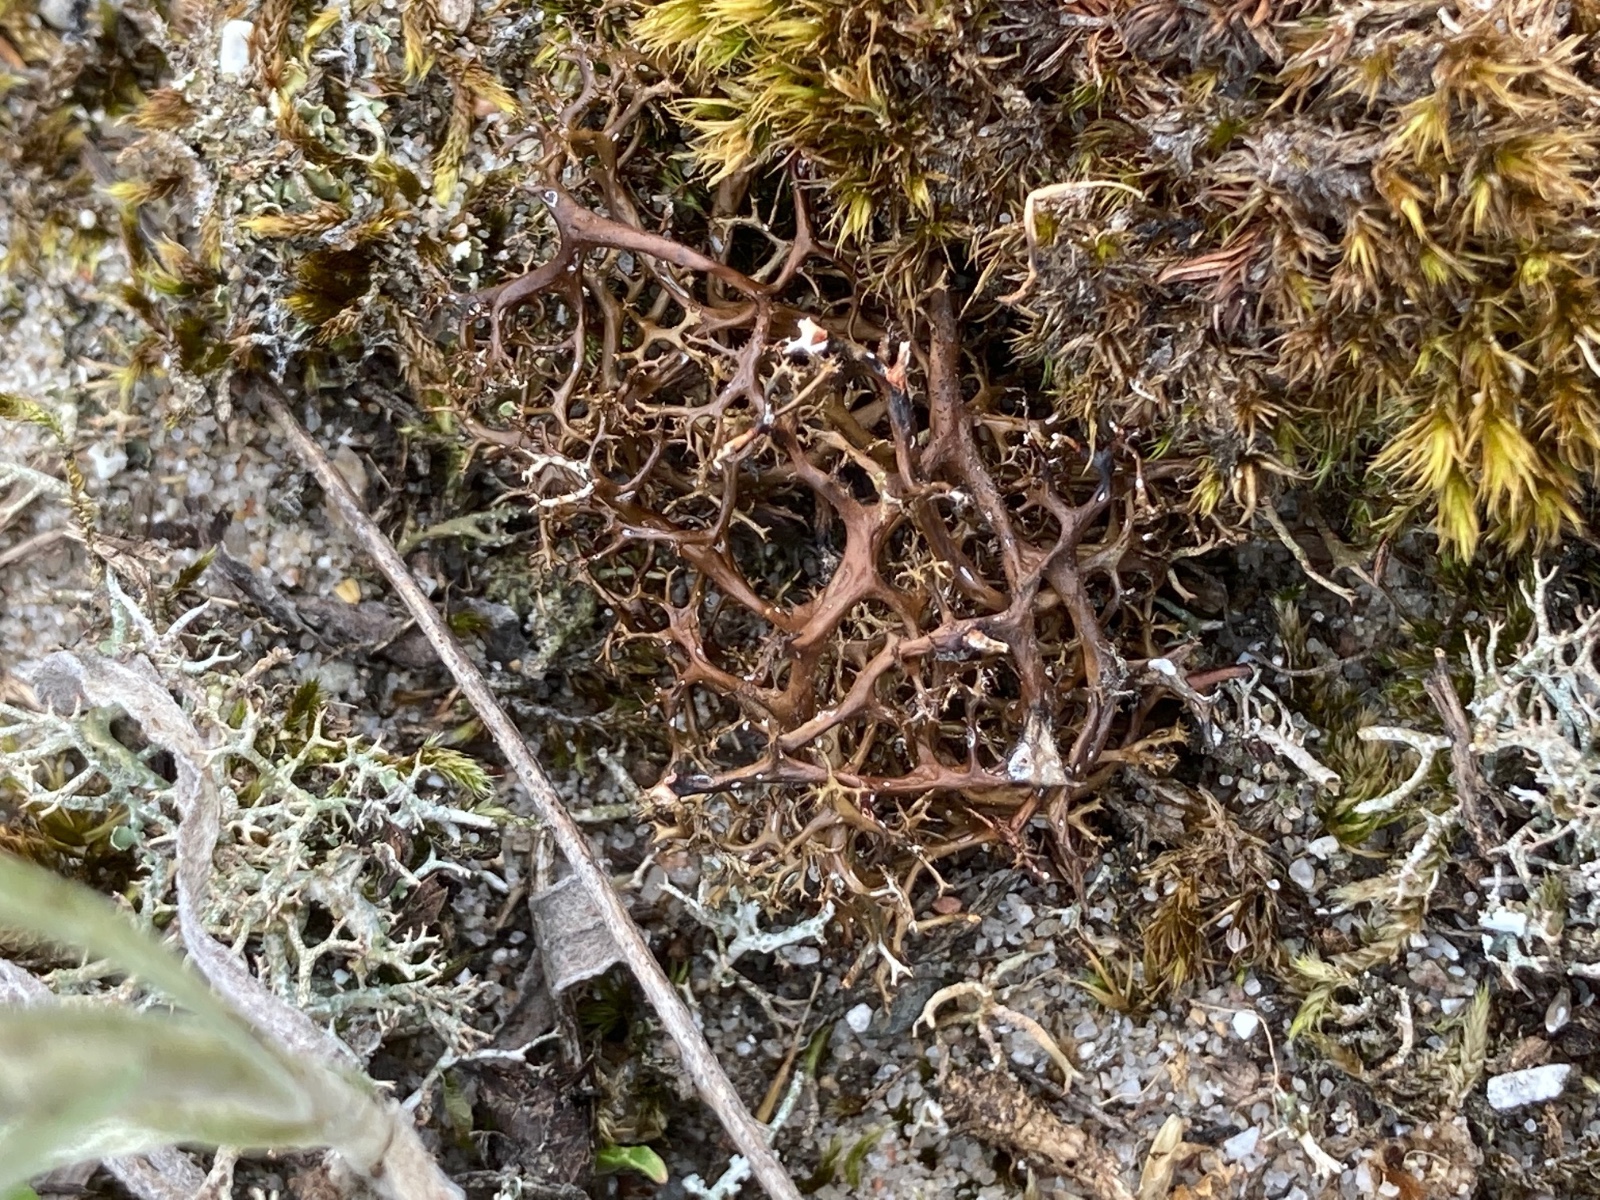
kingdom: Fungi
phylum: Ascomycota
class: Lecanoromycetes
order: Lecanorales
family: Parmeliaceae
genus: Cetraria
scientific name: Cetraria aculeata
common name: grubet tjørnelav
